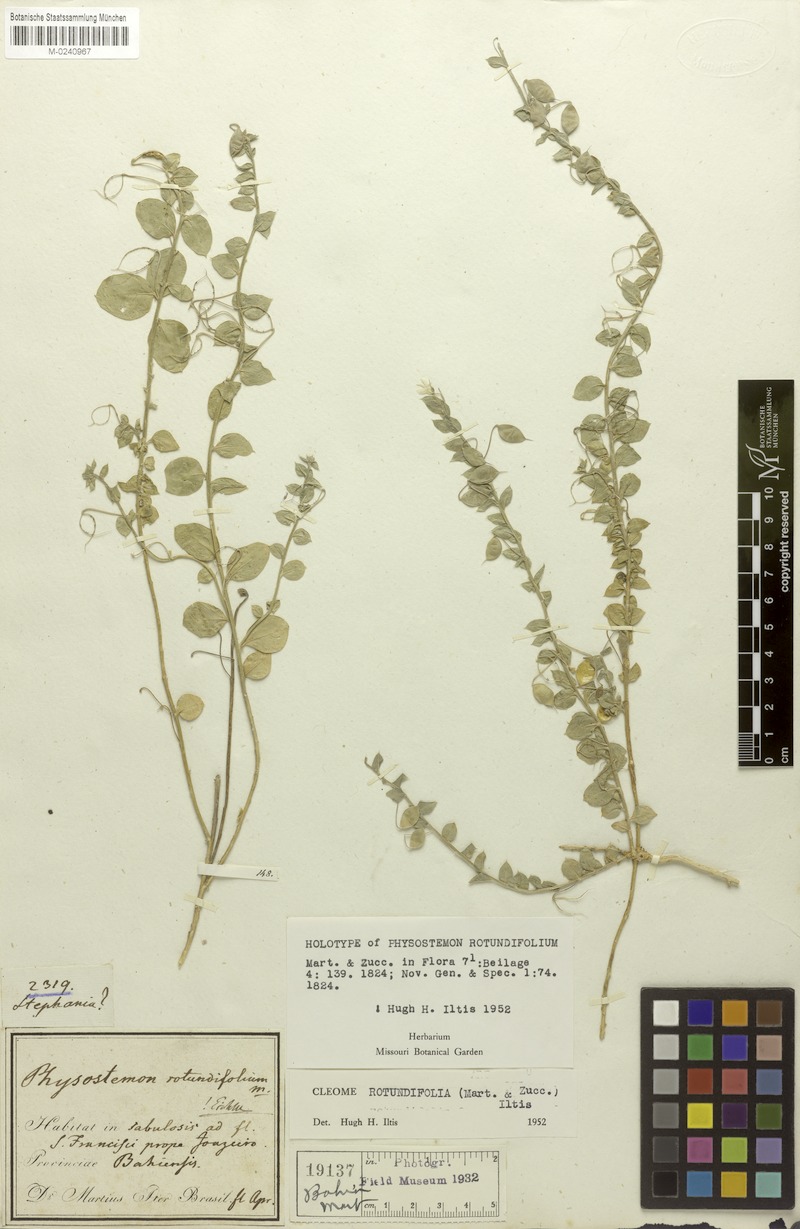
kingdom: Plantae
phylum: Tracheophyta
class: Magnoliopsida
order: Brassicales
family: Cleomaceae
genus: Physostemon
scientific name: Physostemon rotundifolius
